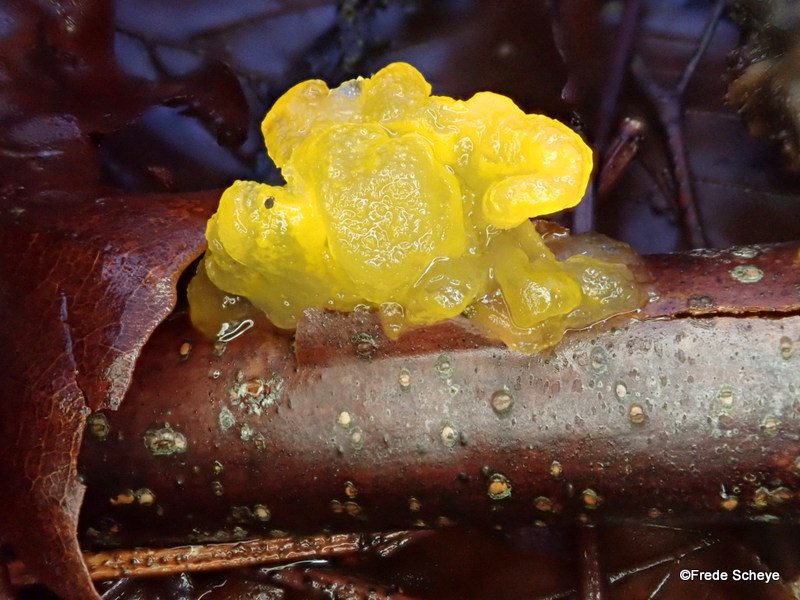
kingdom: Fungi
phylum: Basidiomycota
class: Tremellomycetes
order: Tremellales
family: Tremellaceae
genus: Tremella
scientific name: Tremella mesenterica
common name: gul bævresvamp
